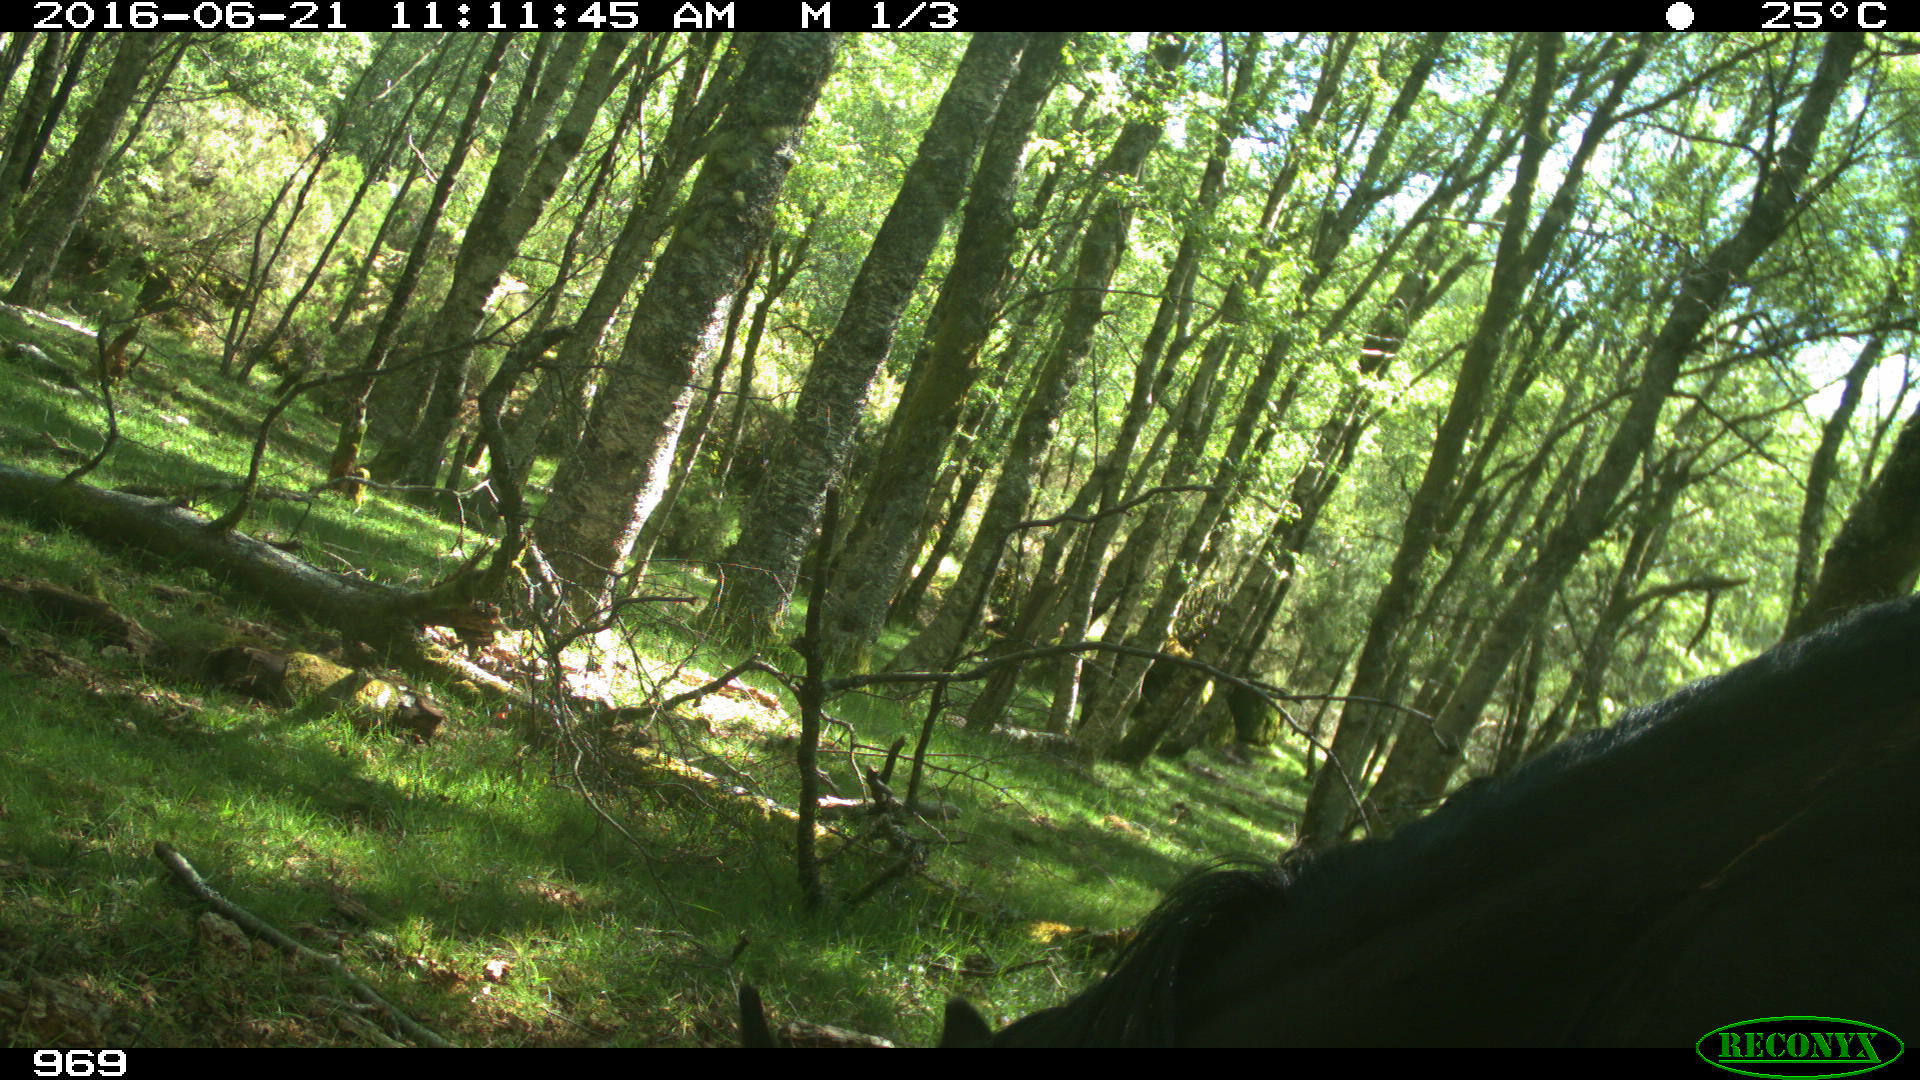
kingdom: Animalia
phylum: Chordata
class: Mammalia
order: Perissodactyla
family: Equidae
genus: Equus
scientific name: Equus caballus
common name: Horse
